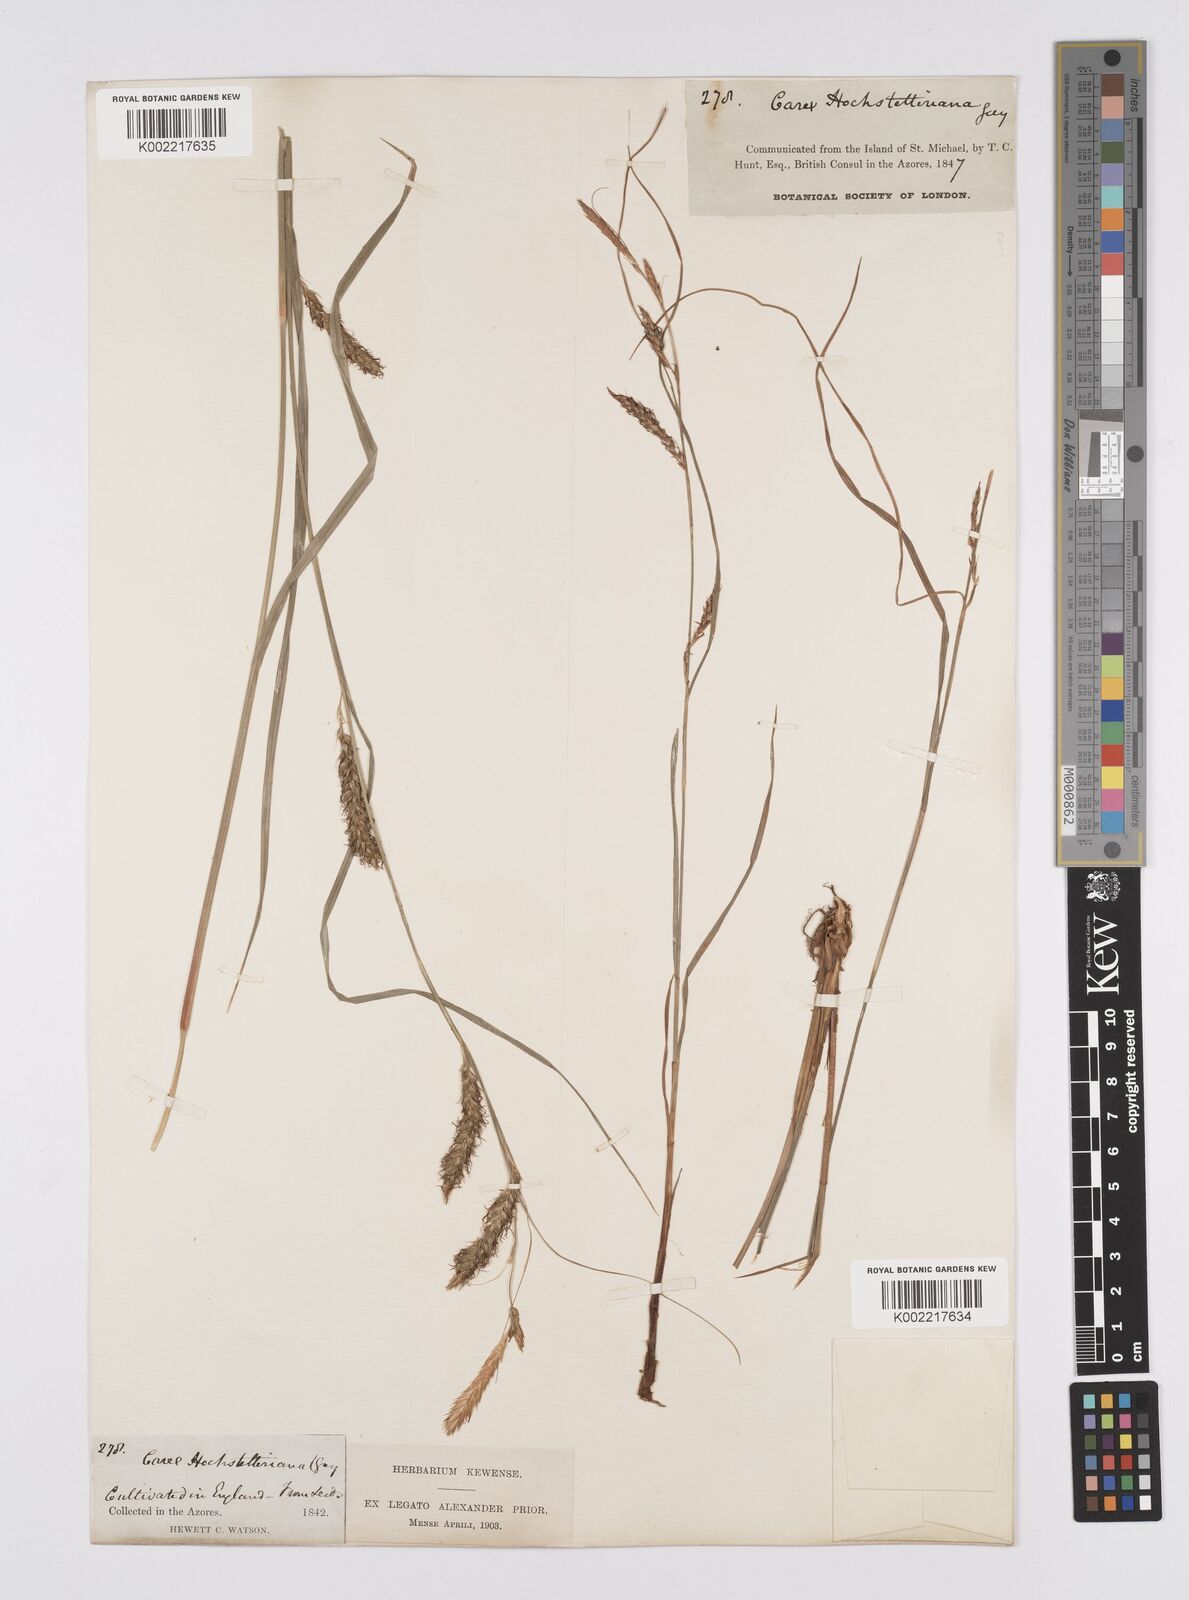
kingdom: Plantae
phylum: Tracheophyta
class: Liliopsida
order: Poales
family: Cyperaceae
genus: Carex
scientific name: Carex hochstetteriana
